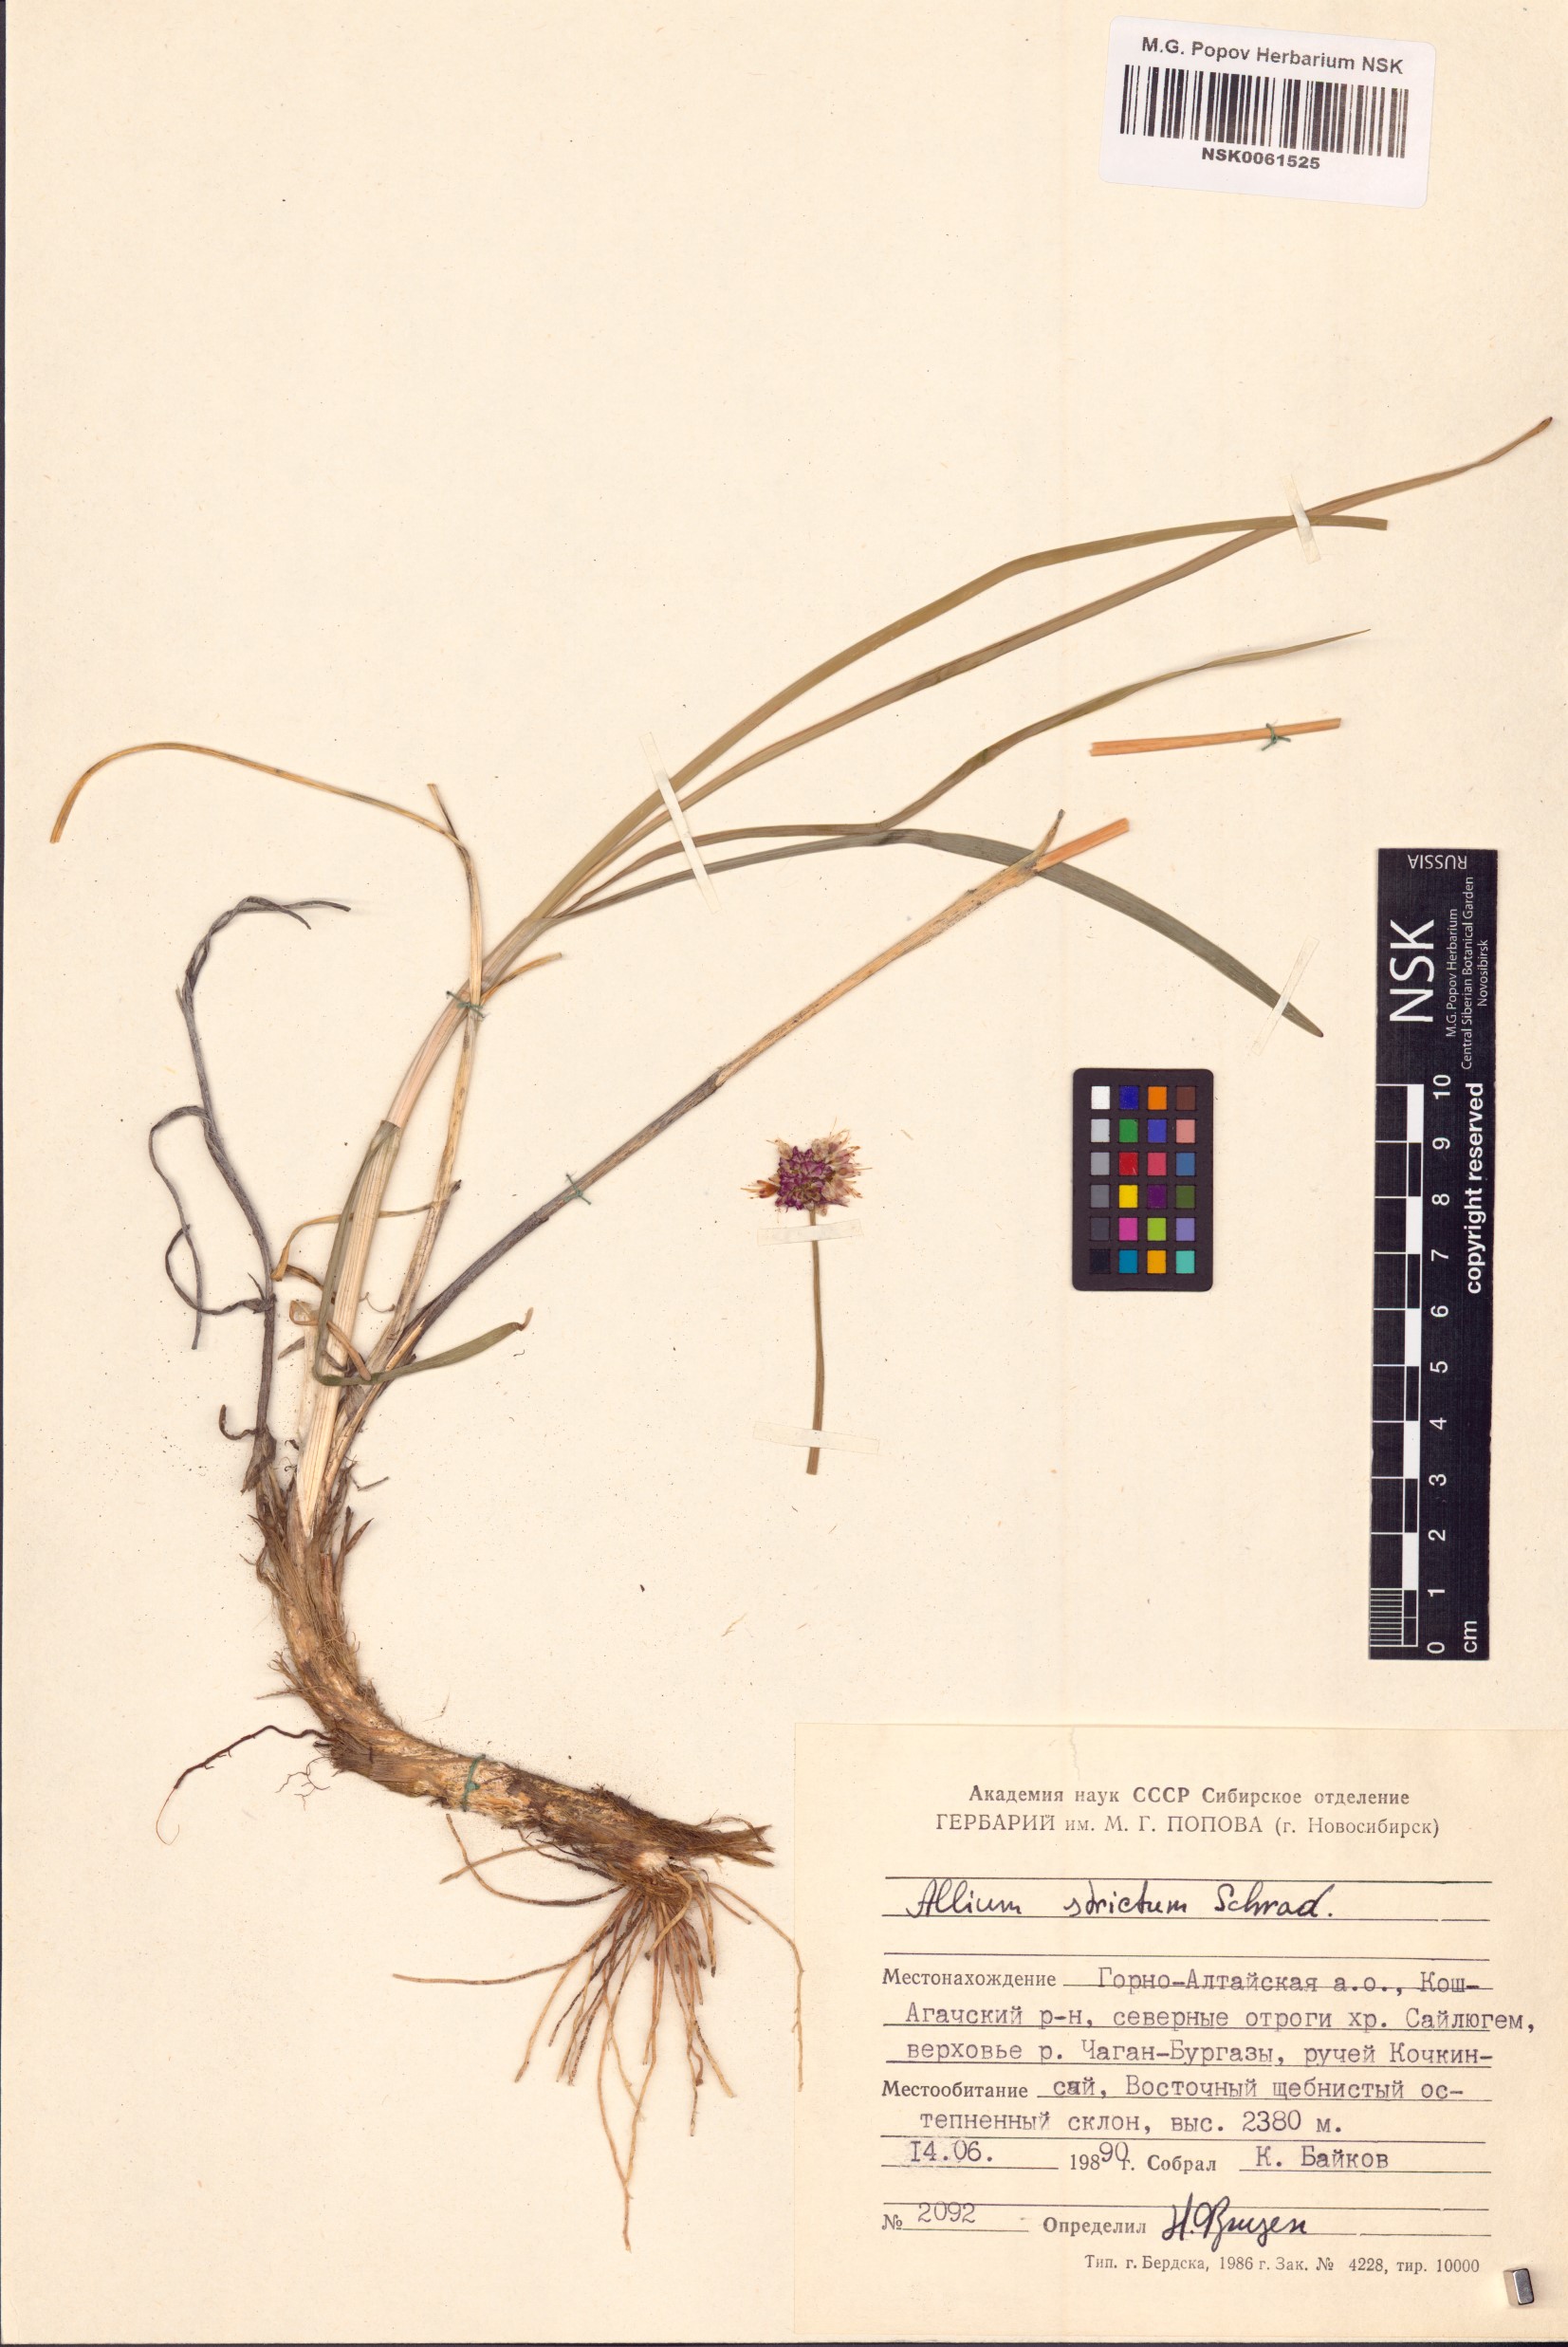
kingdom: Plantae
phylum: Tracheophyta
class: Liliopsida
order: Asparagales
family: Amaryllidaceae
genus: Allium
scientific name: Allium strictum
